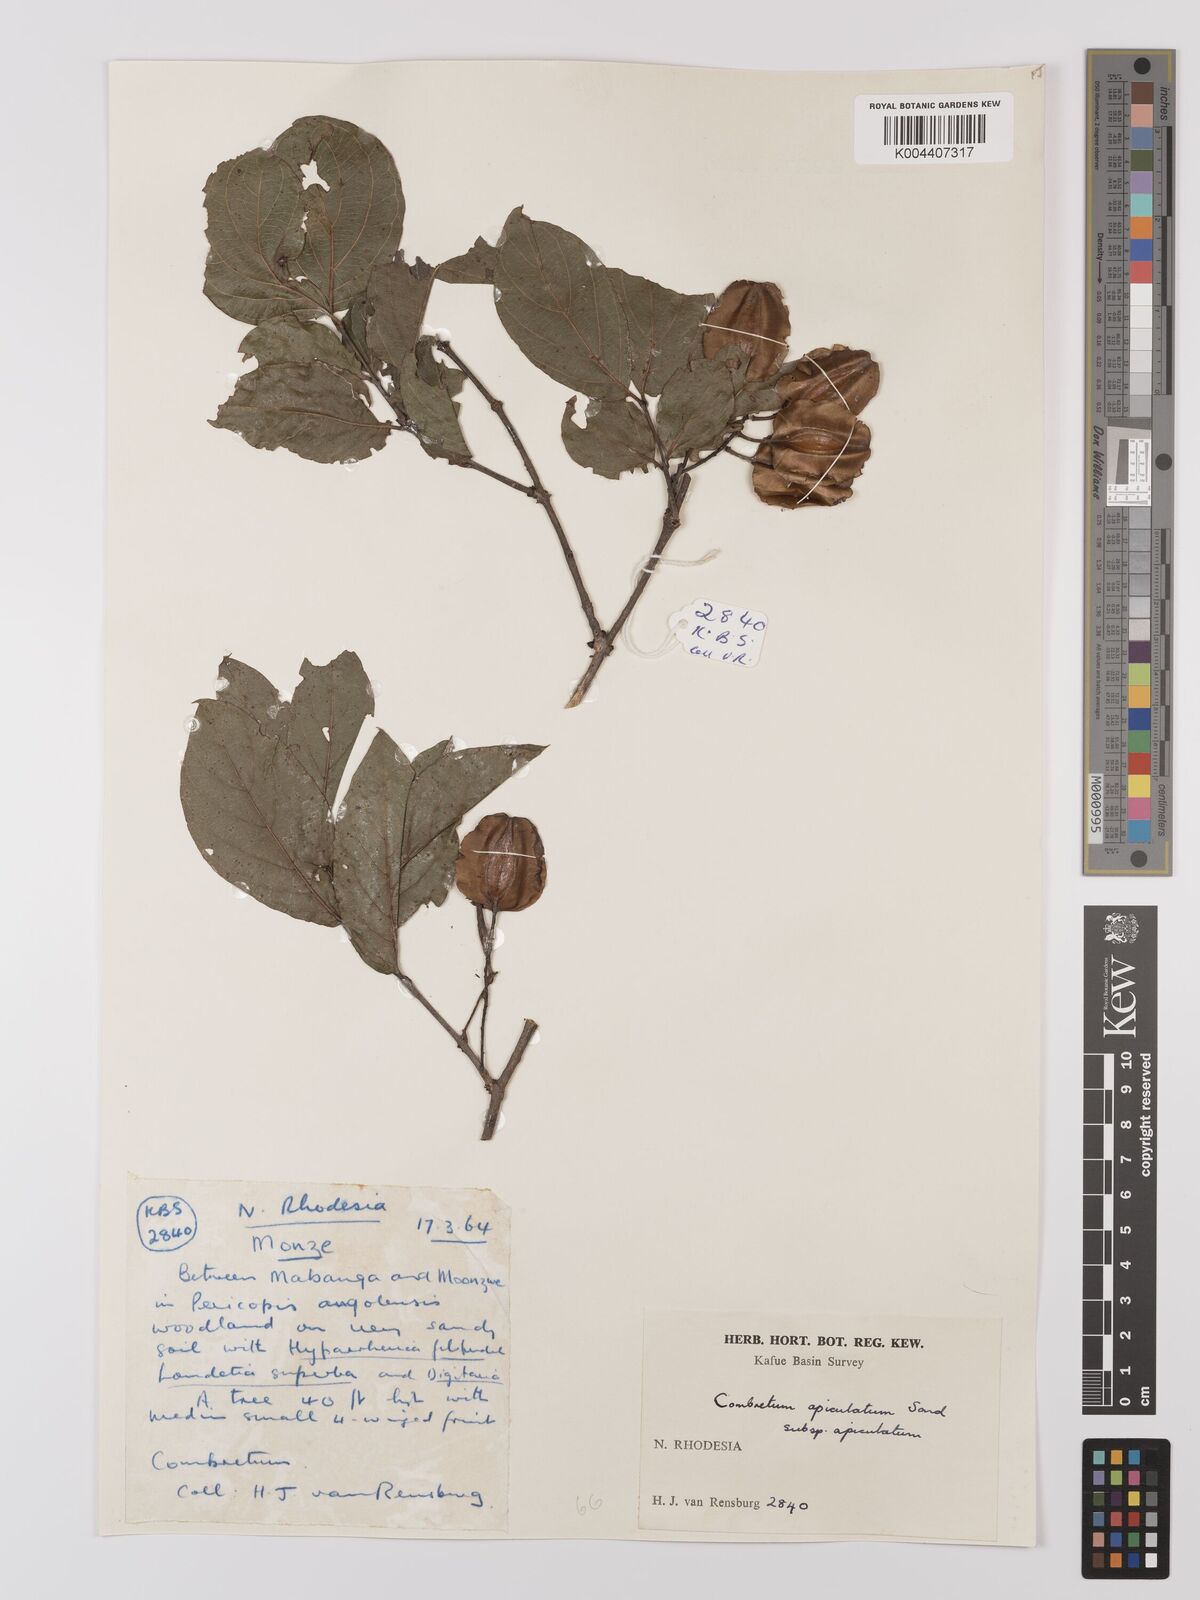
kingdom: Plantae
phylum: Tracheophyta
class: Magnoliopsida
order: Myrtales
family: Combretaceae
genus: Combretum
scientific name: Combretum apiculatum
